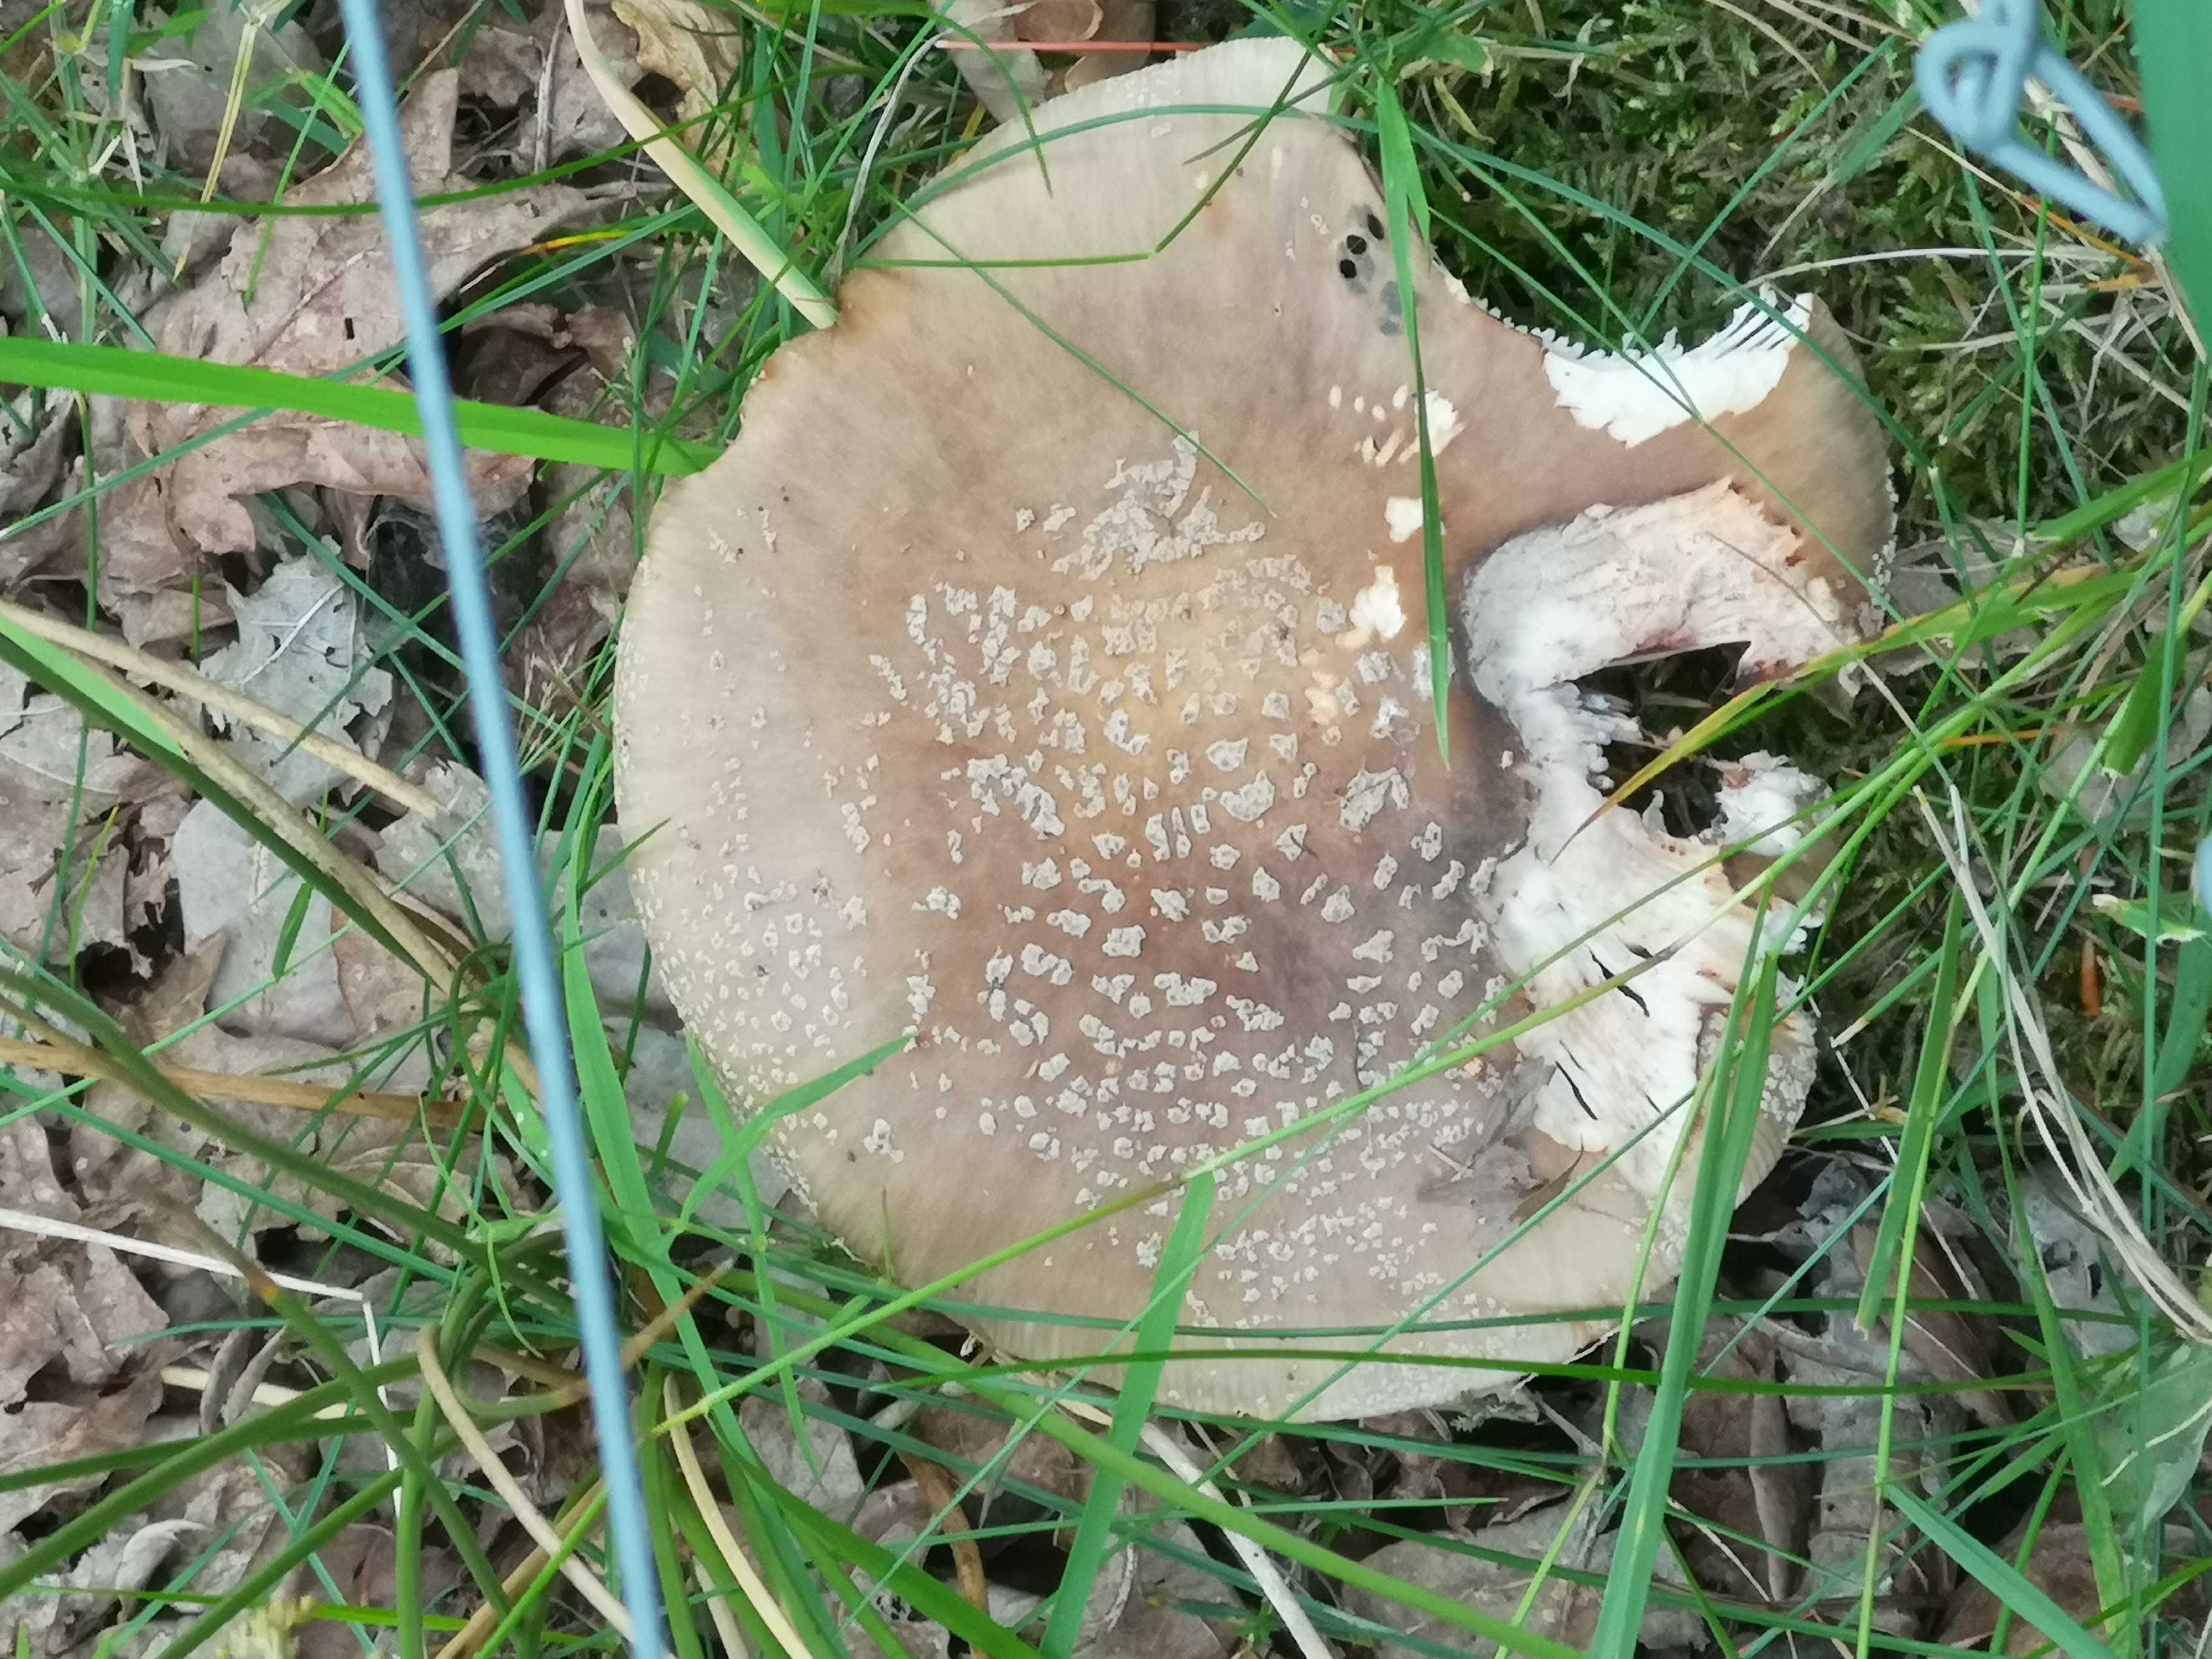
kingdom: Fungi
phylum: Basidiomycota
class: Agaricomycetes
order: Agaricales
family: Amanitaceae
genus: Amanita
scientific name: Amanita rubescens
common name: rødmende fluesvamp
